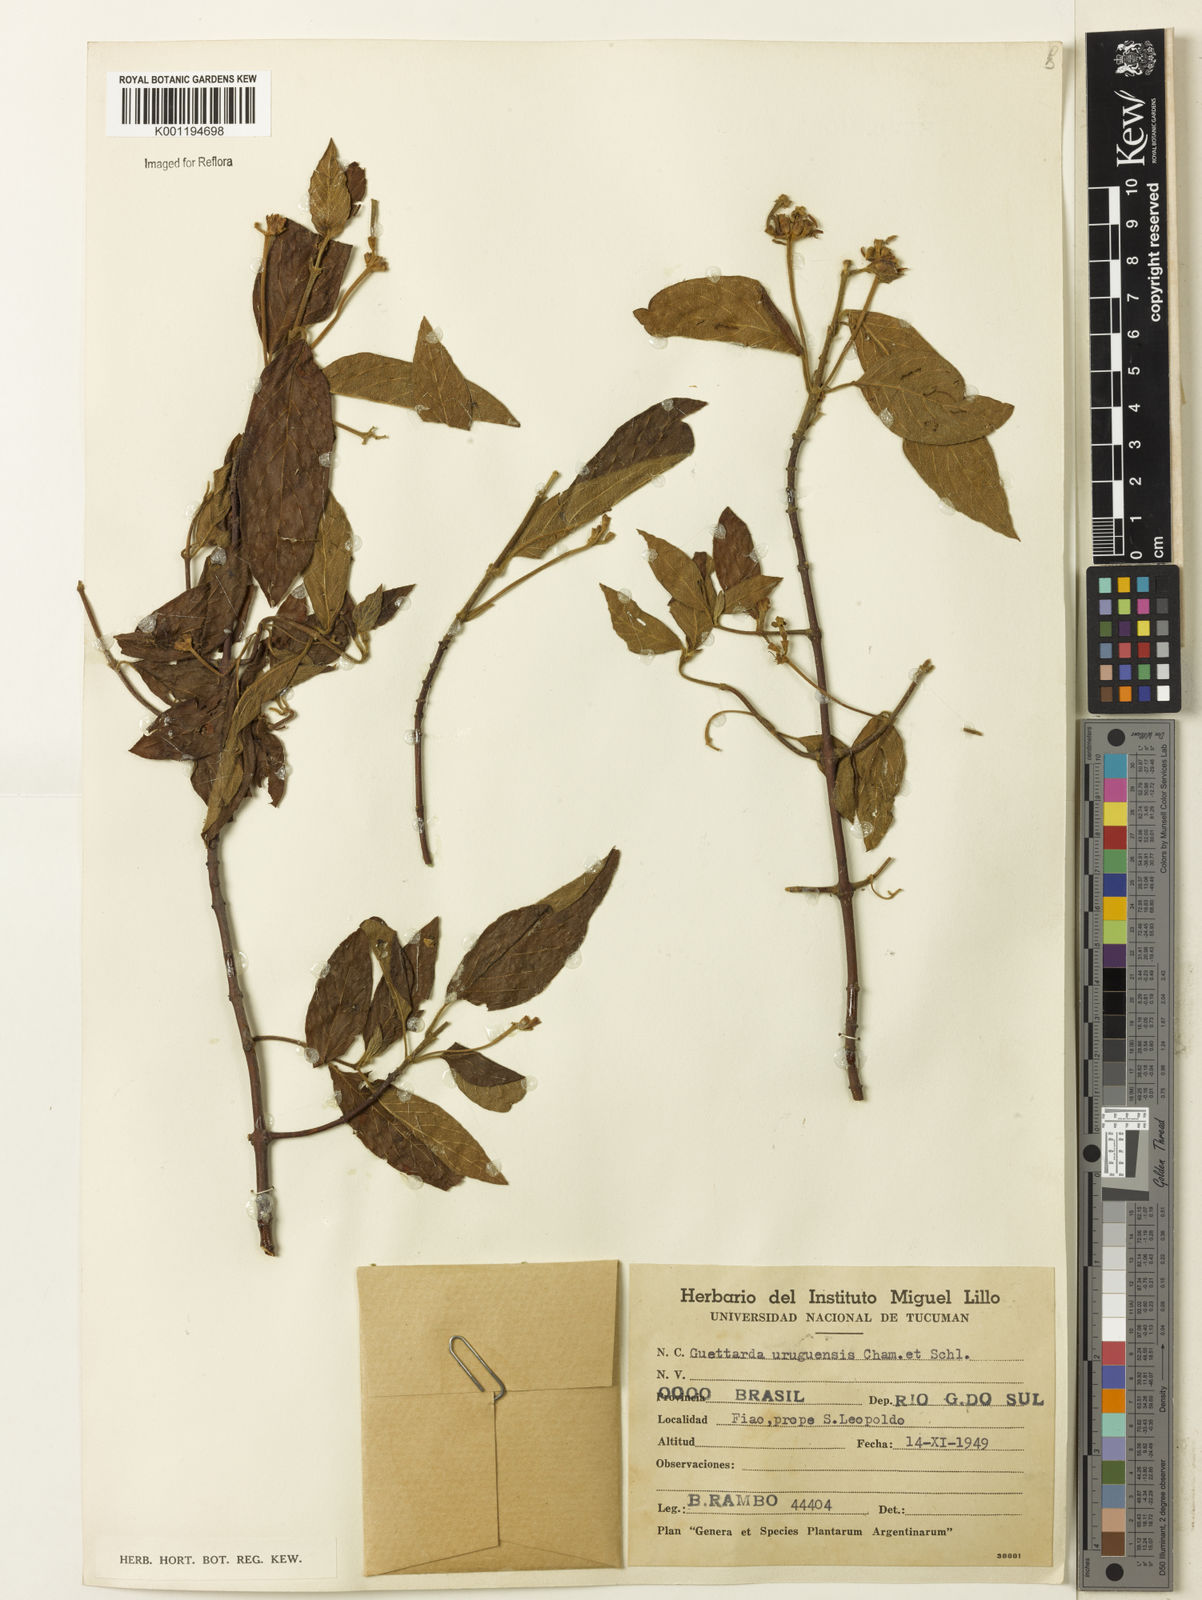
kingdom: Plantae
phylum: Tracheophyta
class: Magnoliopsida
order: Gentianales
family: Rubiaceae
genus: Guettarda
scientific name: Guettarda uruguensis
